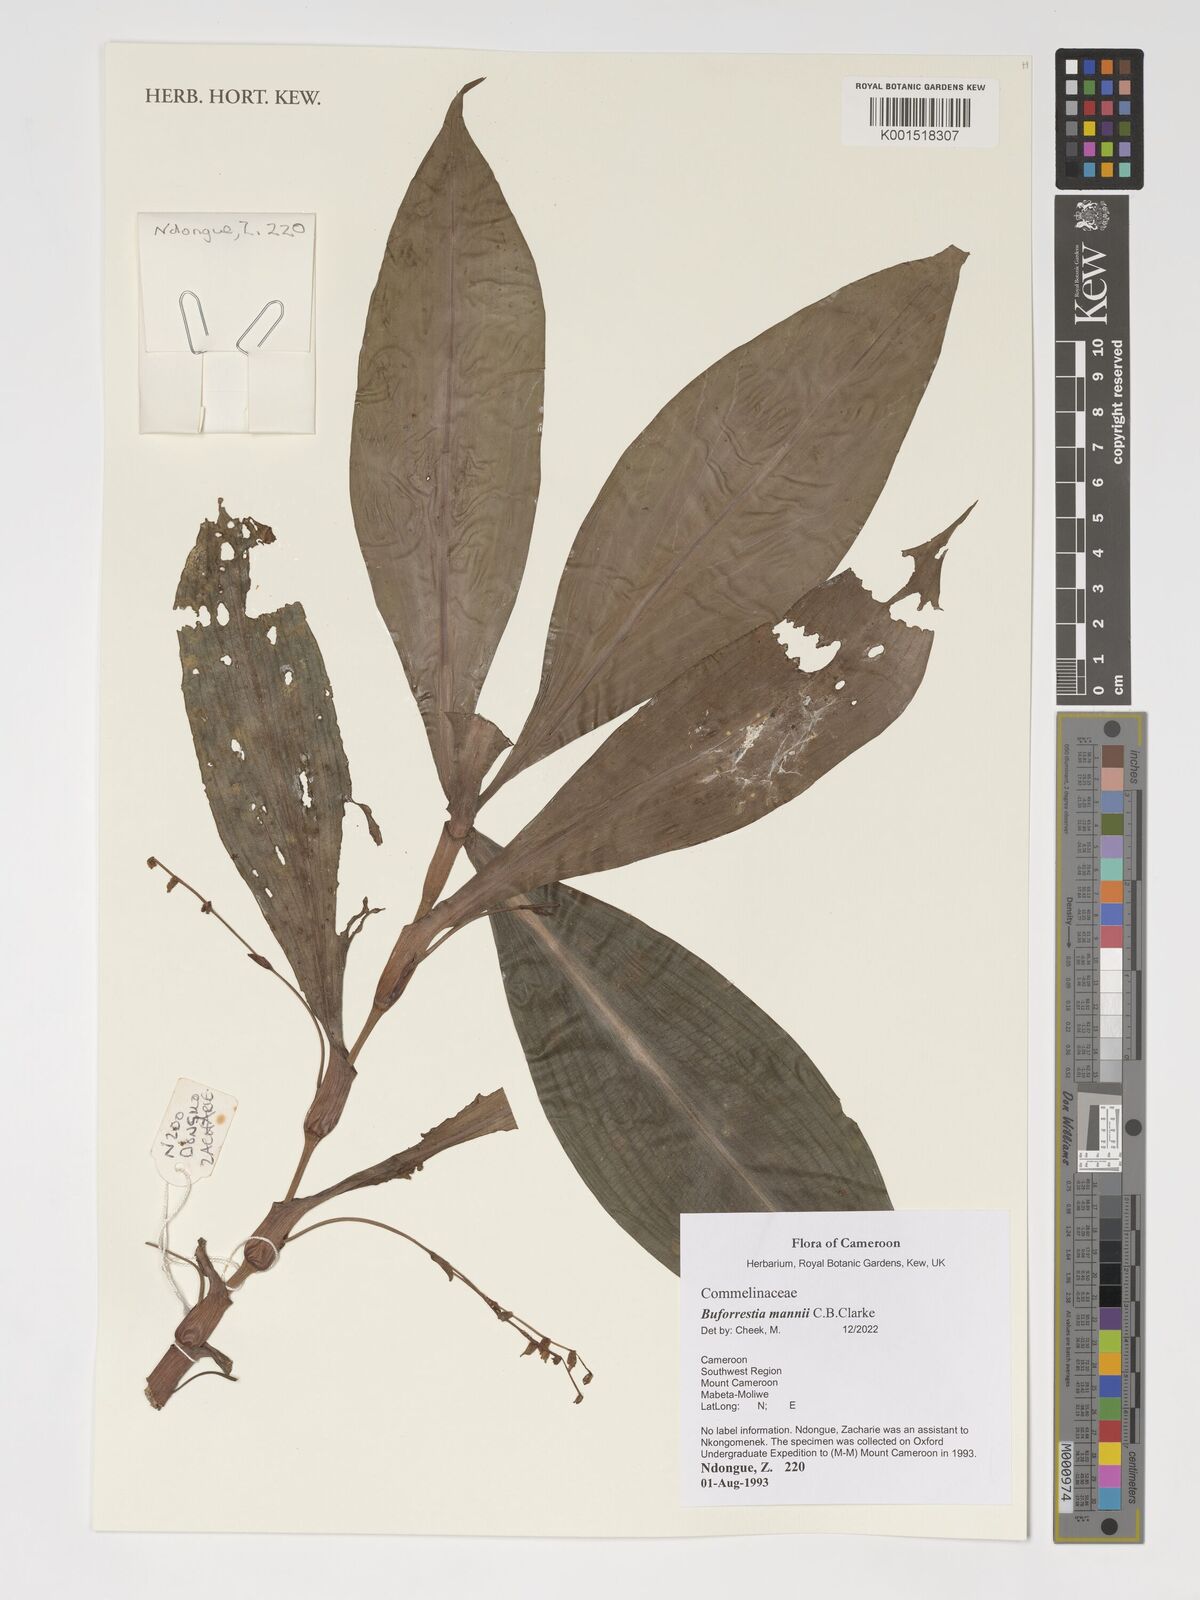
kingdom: Plantae
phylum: Tracheophyta
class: Liliopsida
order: Commelinales
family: Commelinaceae
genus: Buforrestia
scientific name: Buforrestia mannii
